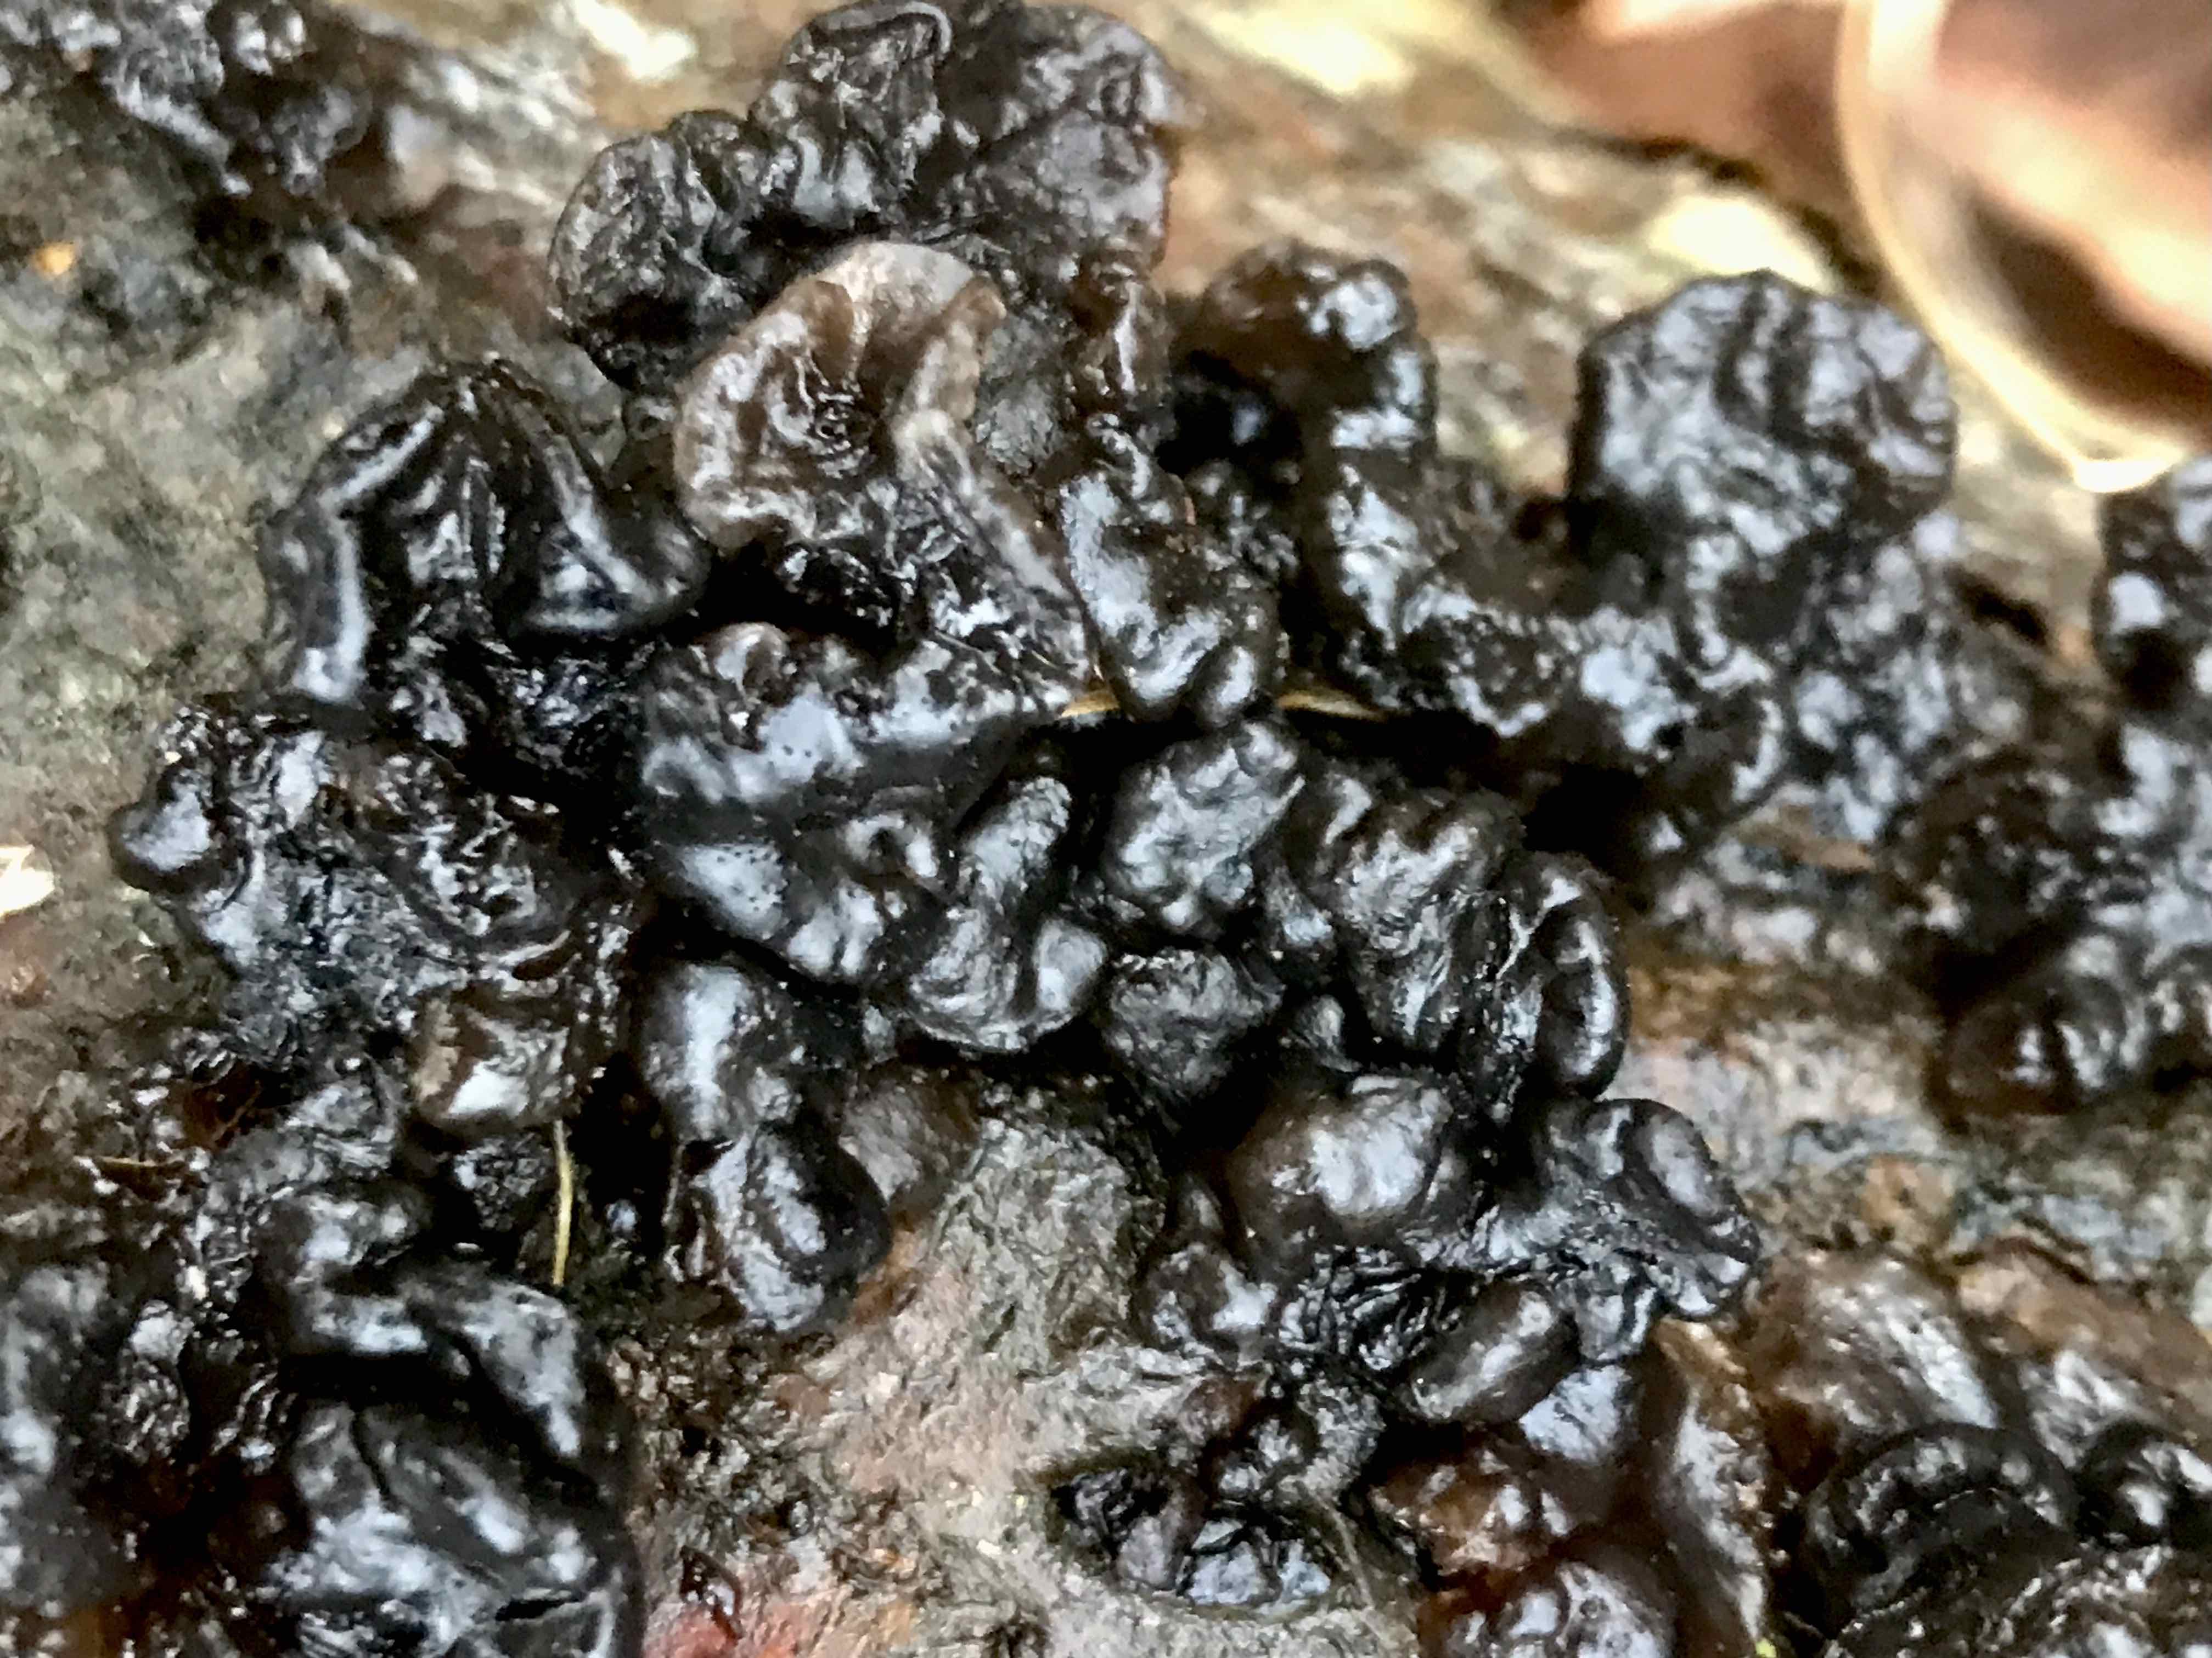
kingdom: Fungi
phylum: Basidiomycota
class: Agaricomycetes
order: Auriculariales
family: Auriculariaceae
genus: Exidia
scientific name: Exidia nigricans
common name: almindelig bævretop
